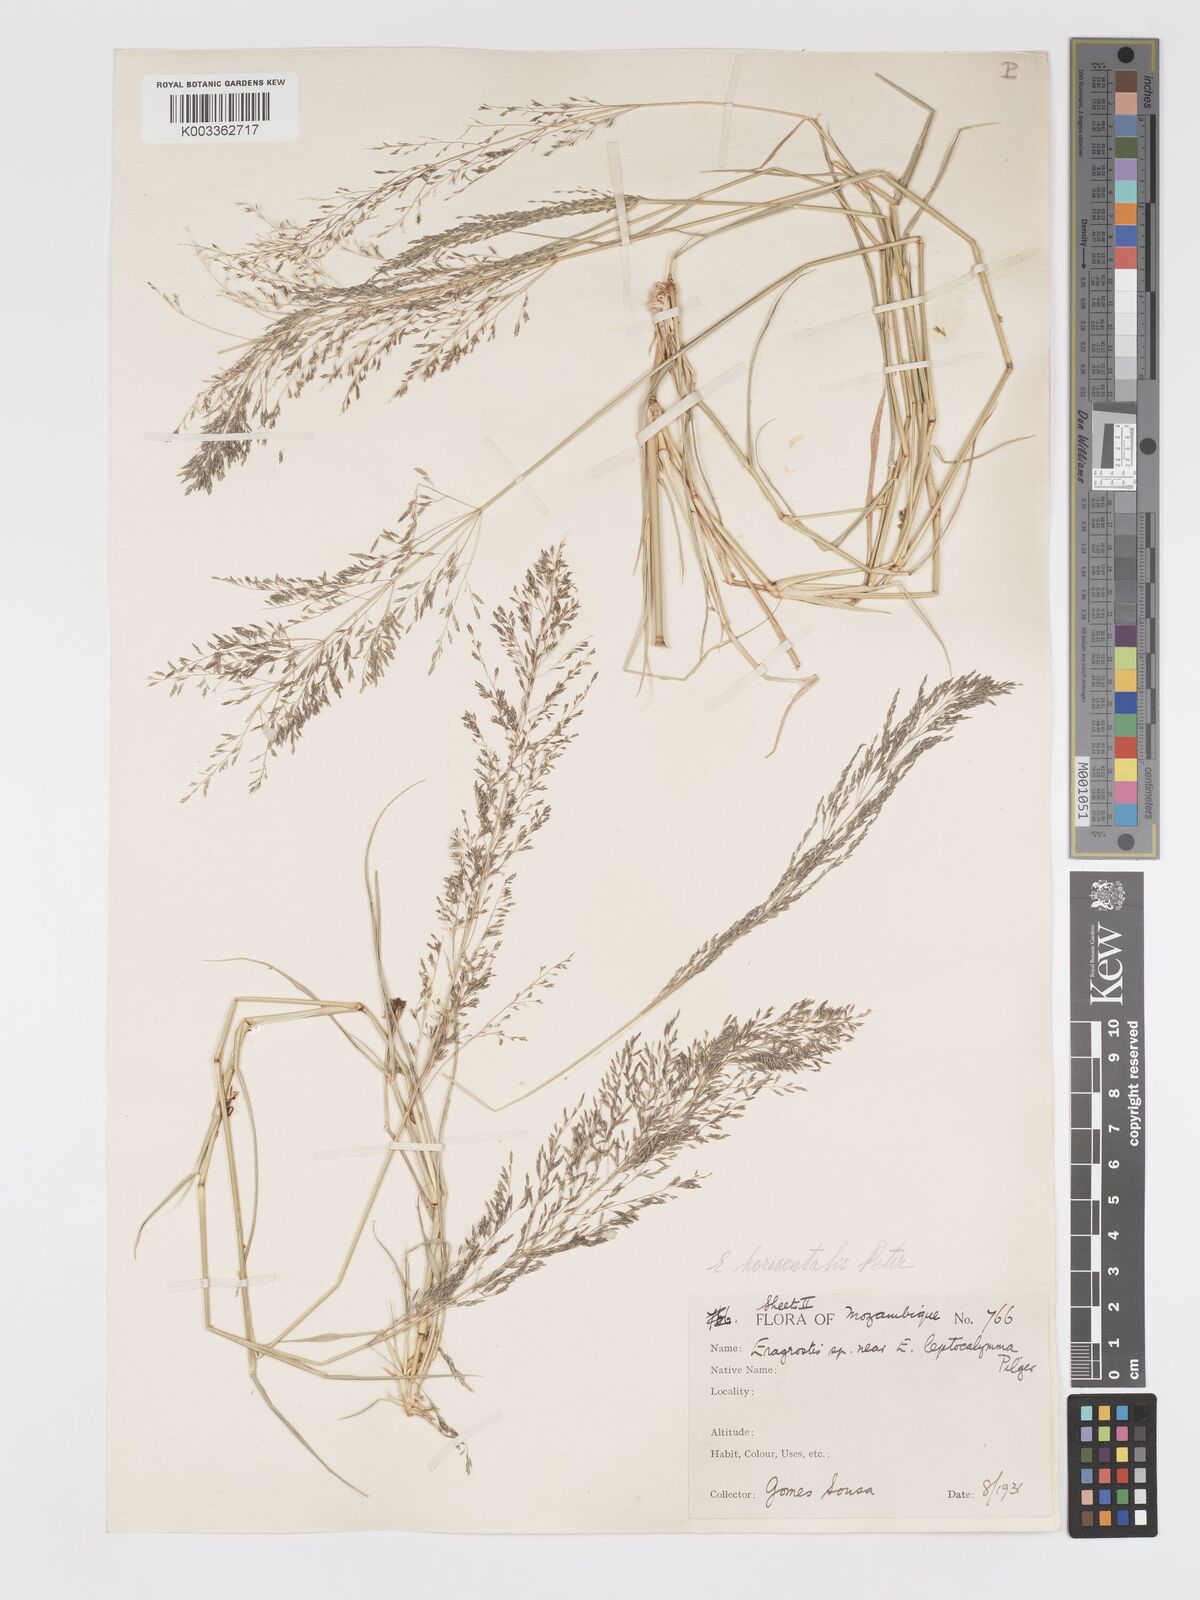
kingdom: Plantae
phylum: Tracheophyta
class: Liliopsida
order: Poales
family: Poaceae
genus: Eragrostis
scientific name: Eragrostis cylindriflora
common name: Cylinderflower lovegrass
